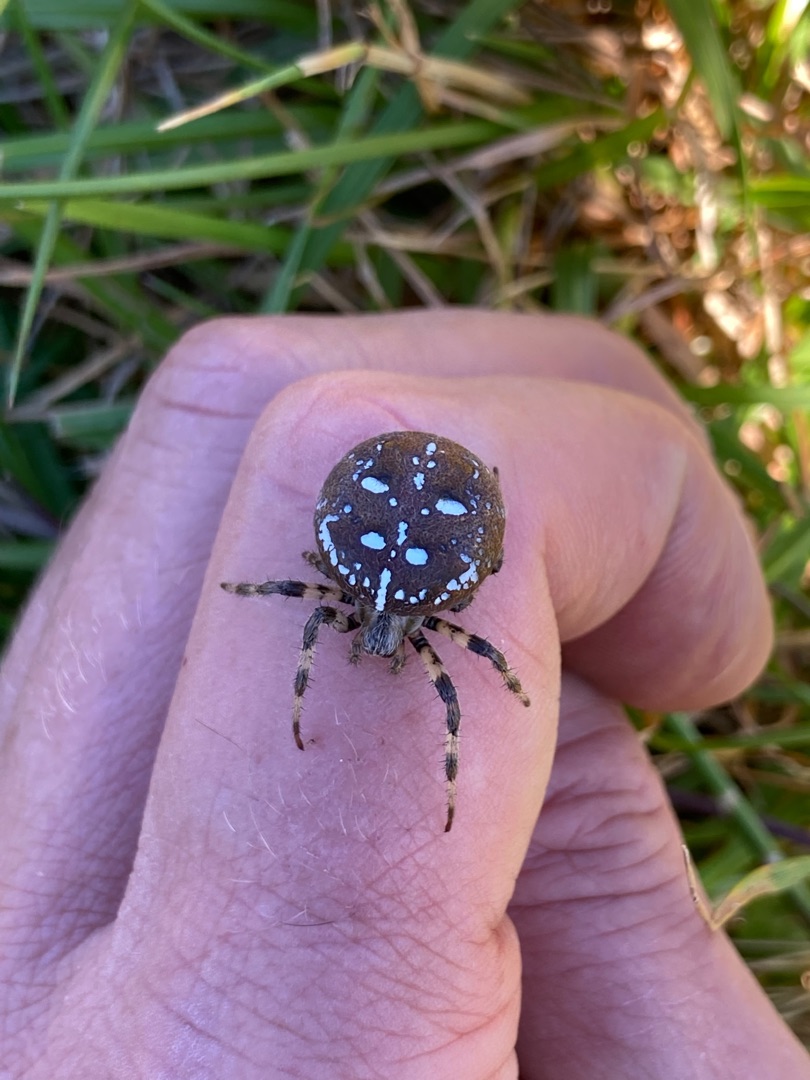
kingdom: Animalia
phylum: Arthropoda
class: Arachnida
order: Araneae
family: Araneidae
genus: Araneus
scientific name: Araneus quadratus
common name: Kvadratedderkop
